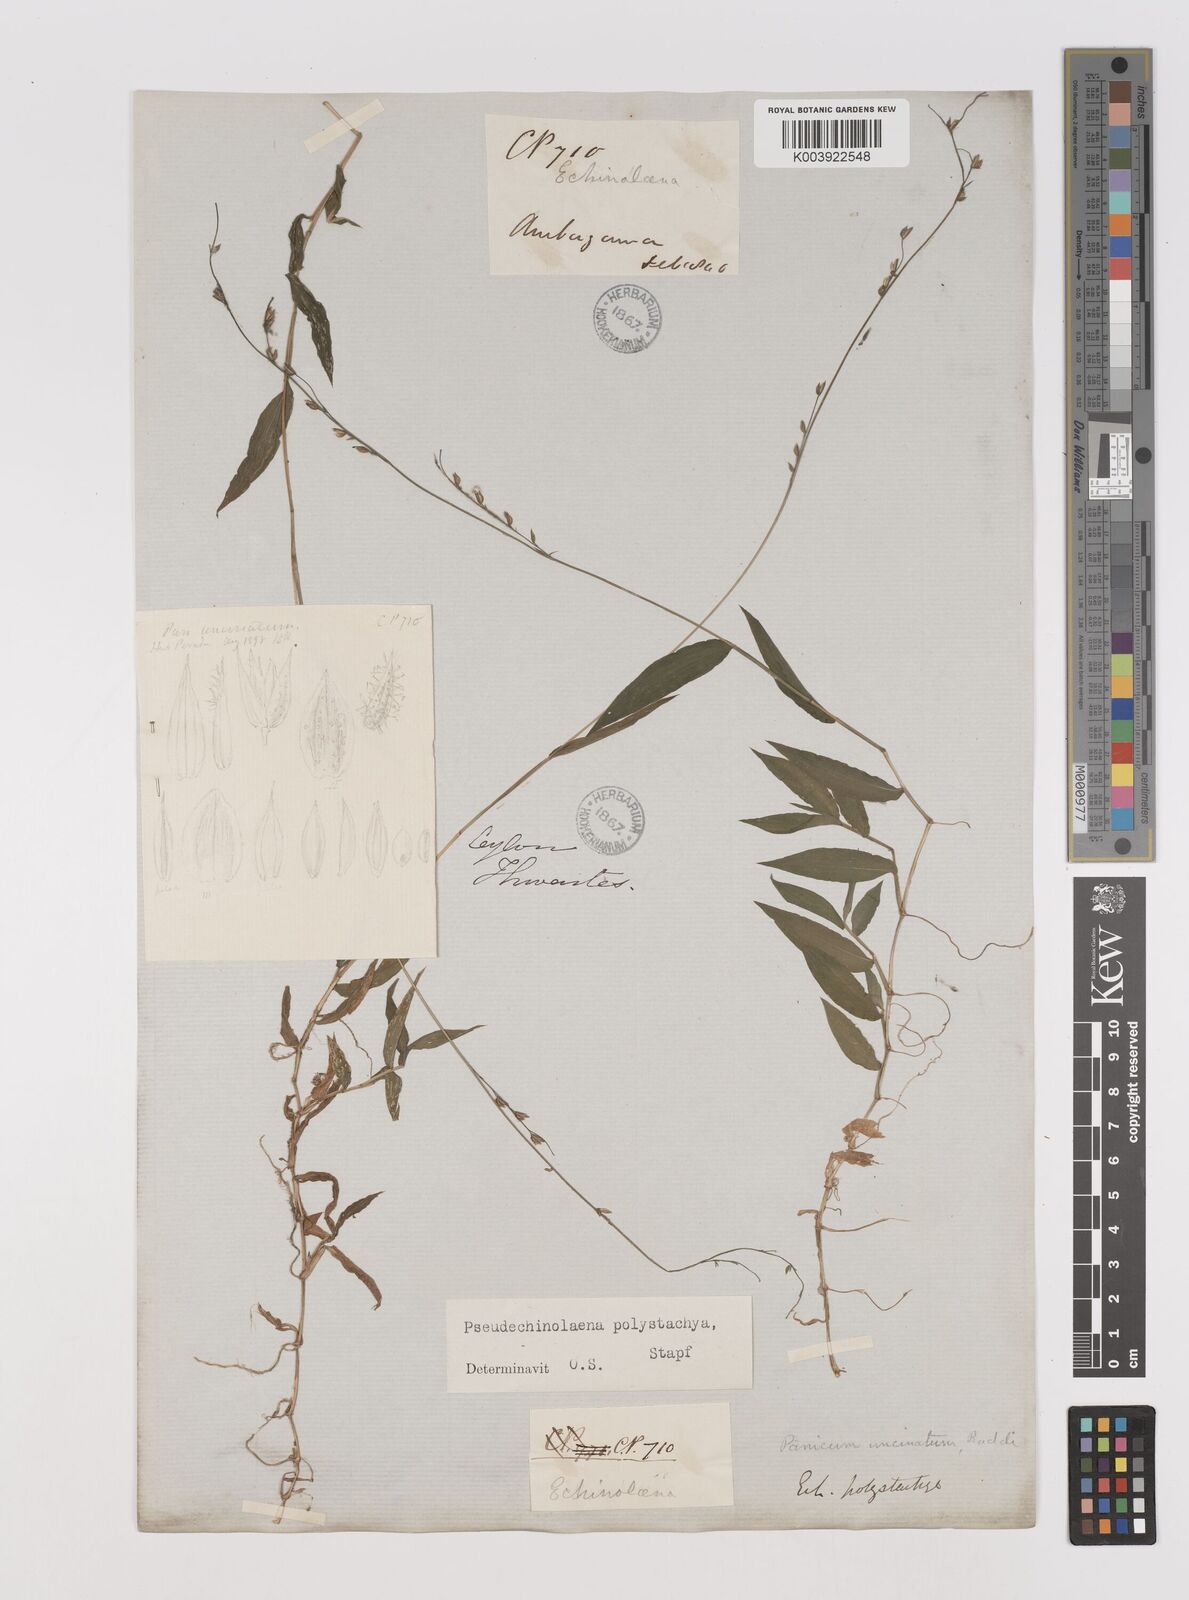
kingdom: Plantae
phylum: Tracheophyta
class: Liliopsida
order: Poales
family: Poaceae
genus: Pseudechinolaena
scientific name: Pseudechinolaena polystachya
